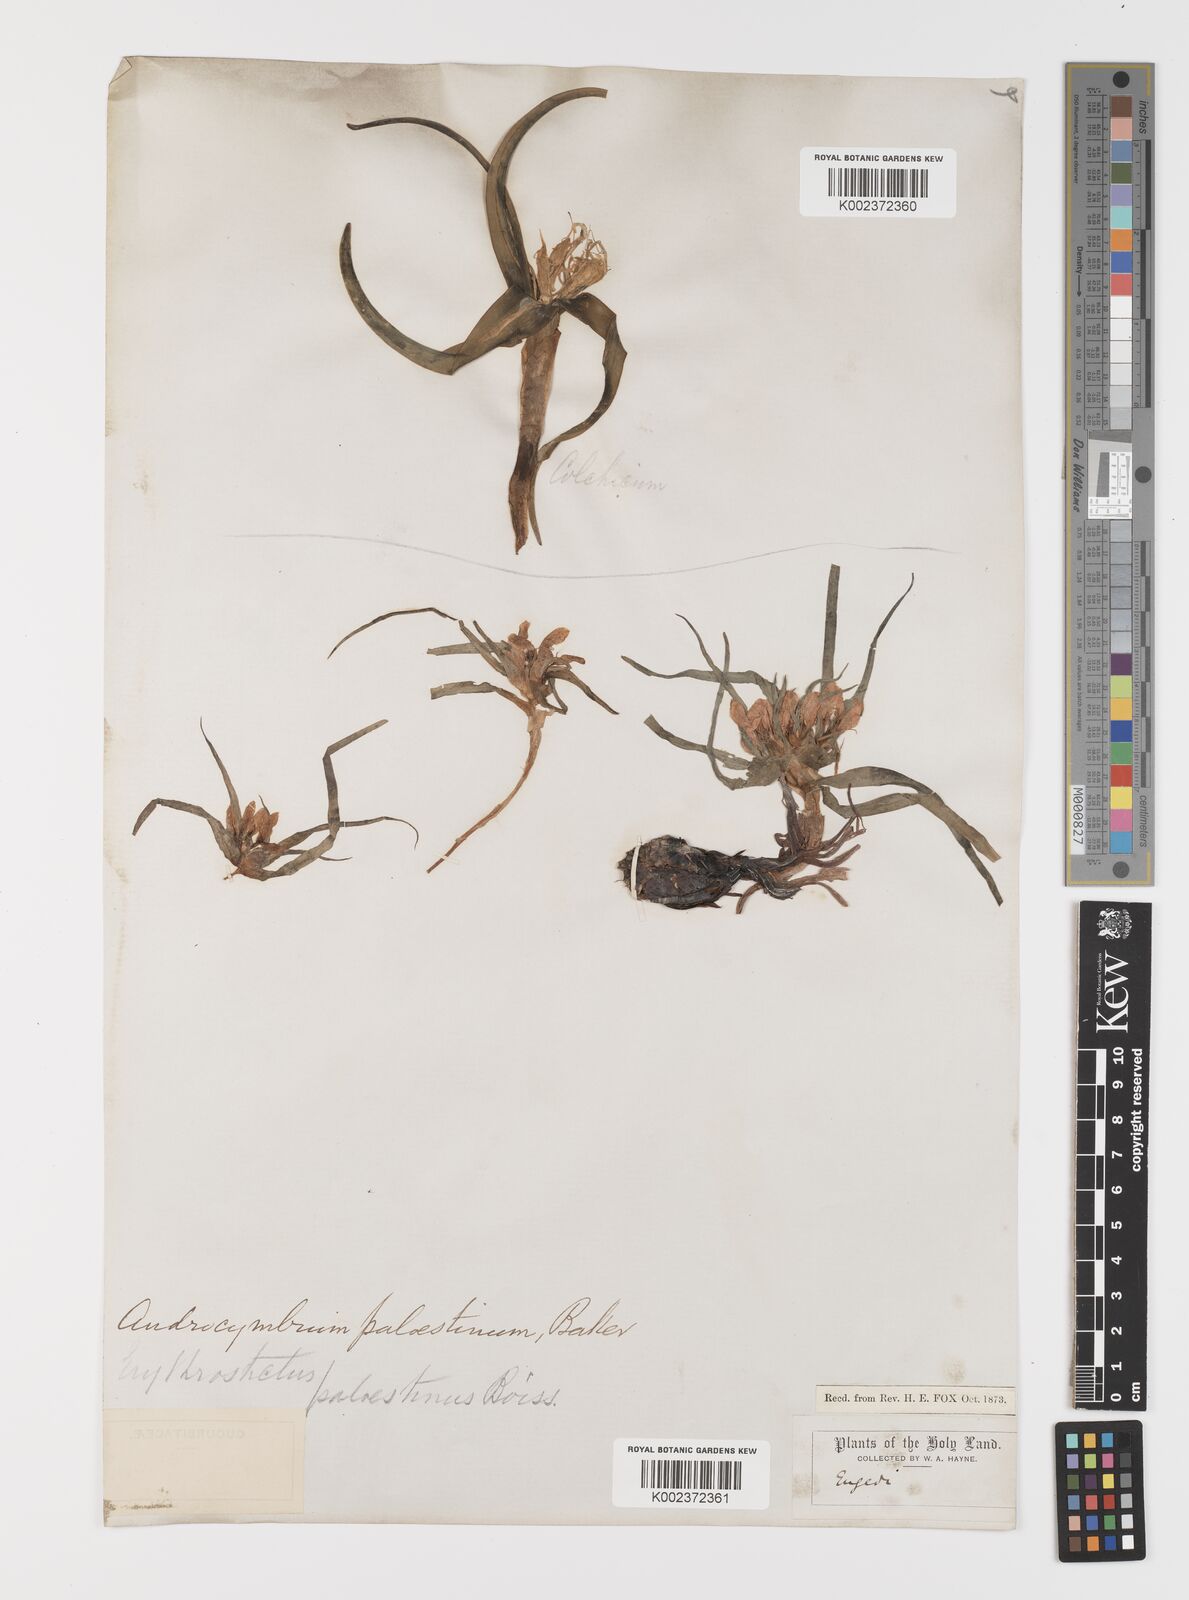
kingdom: Plantae
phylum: Tracheophyta
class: Liliopsida
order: Liliales
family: Colchicaceae
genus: Colchicum
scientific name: Colchicum palaestinum
